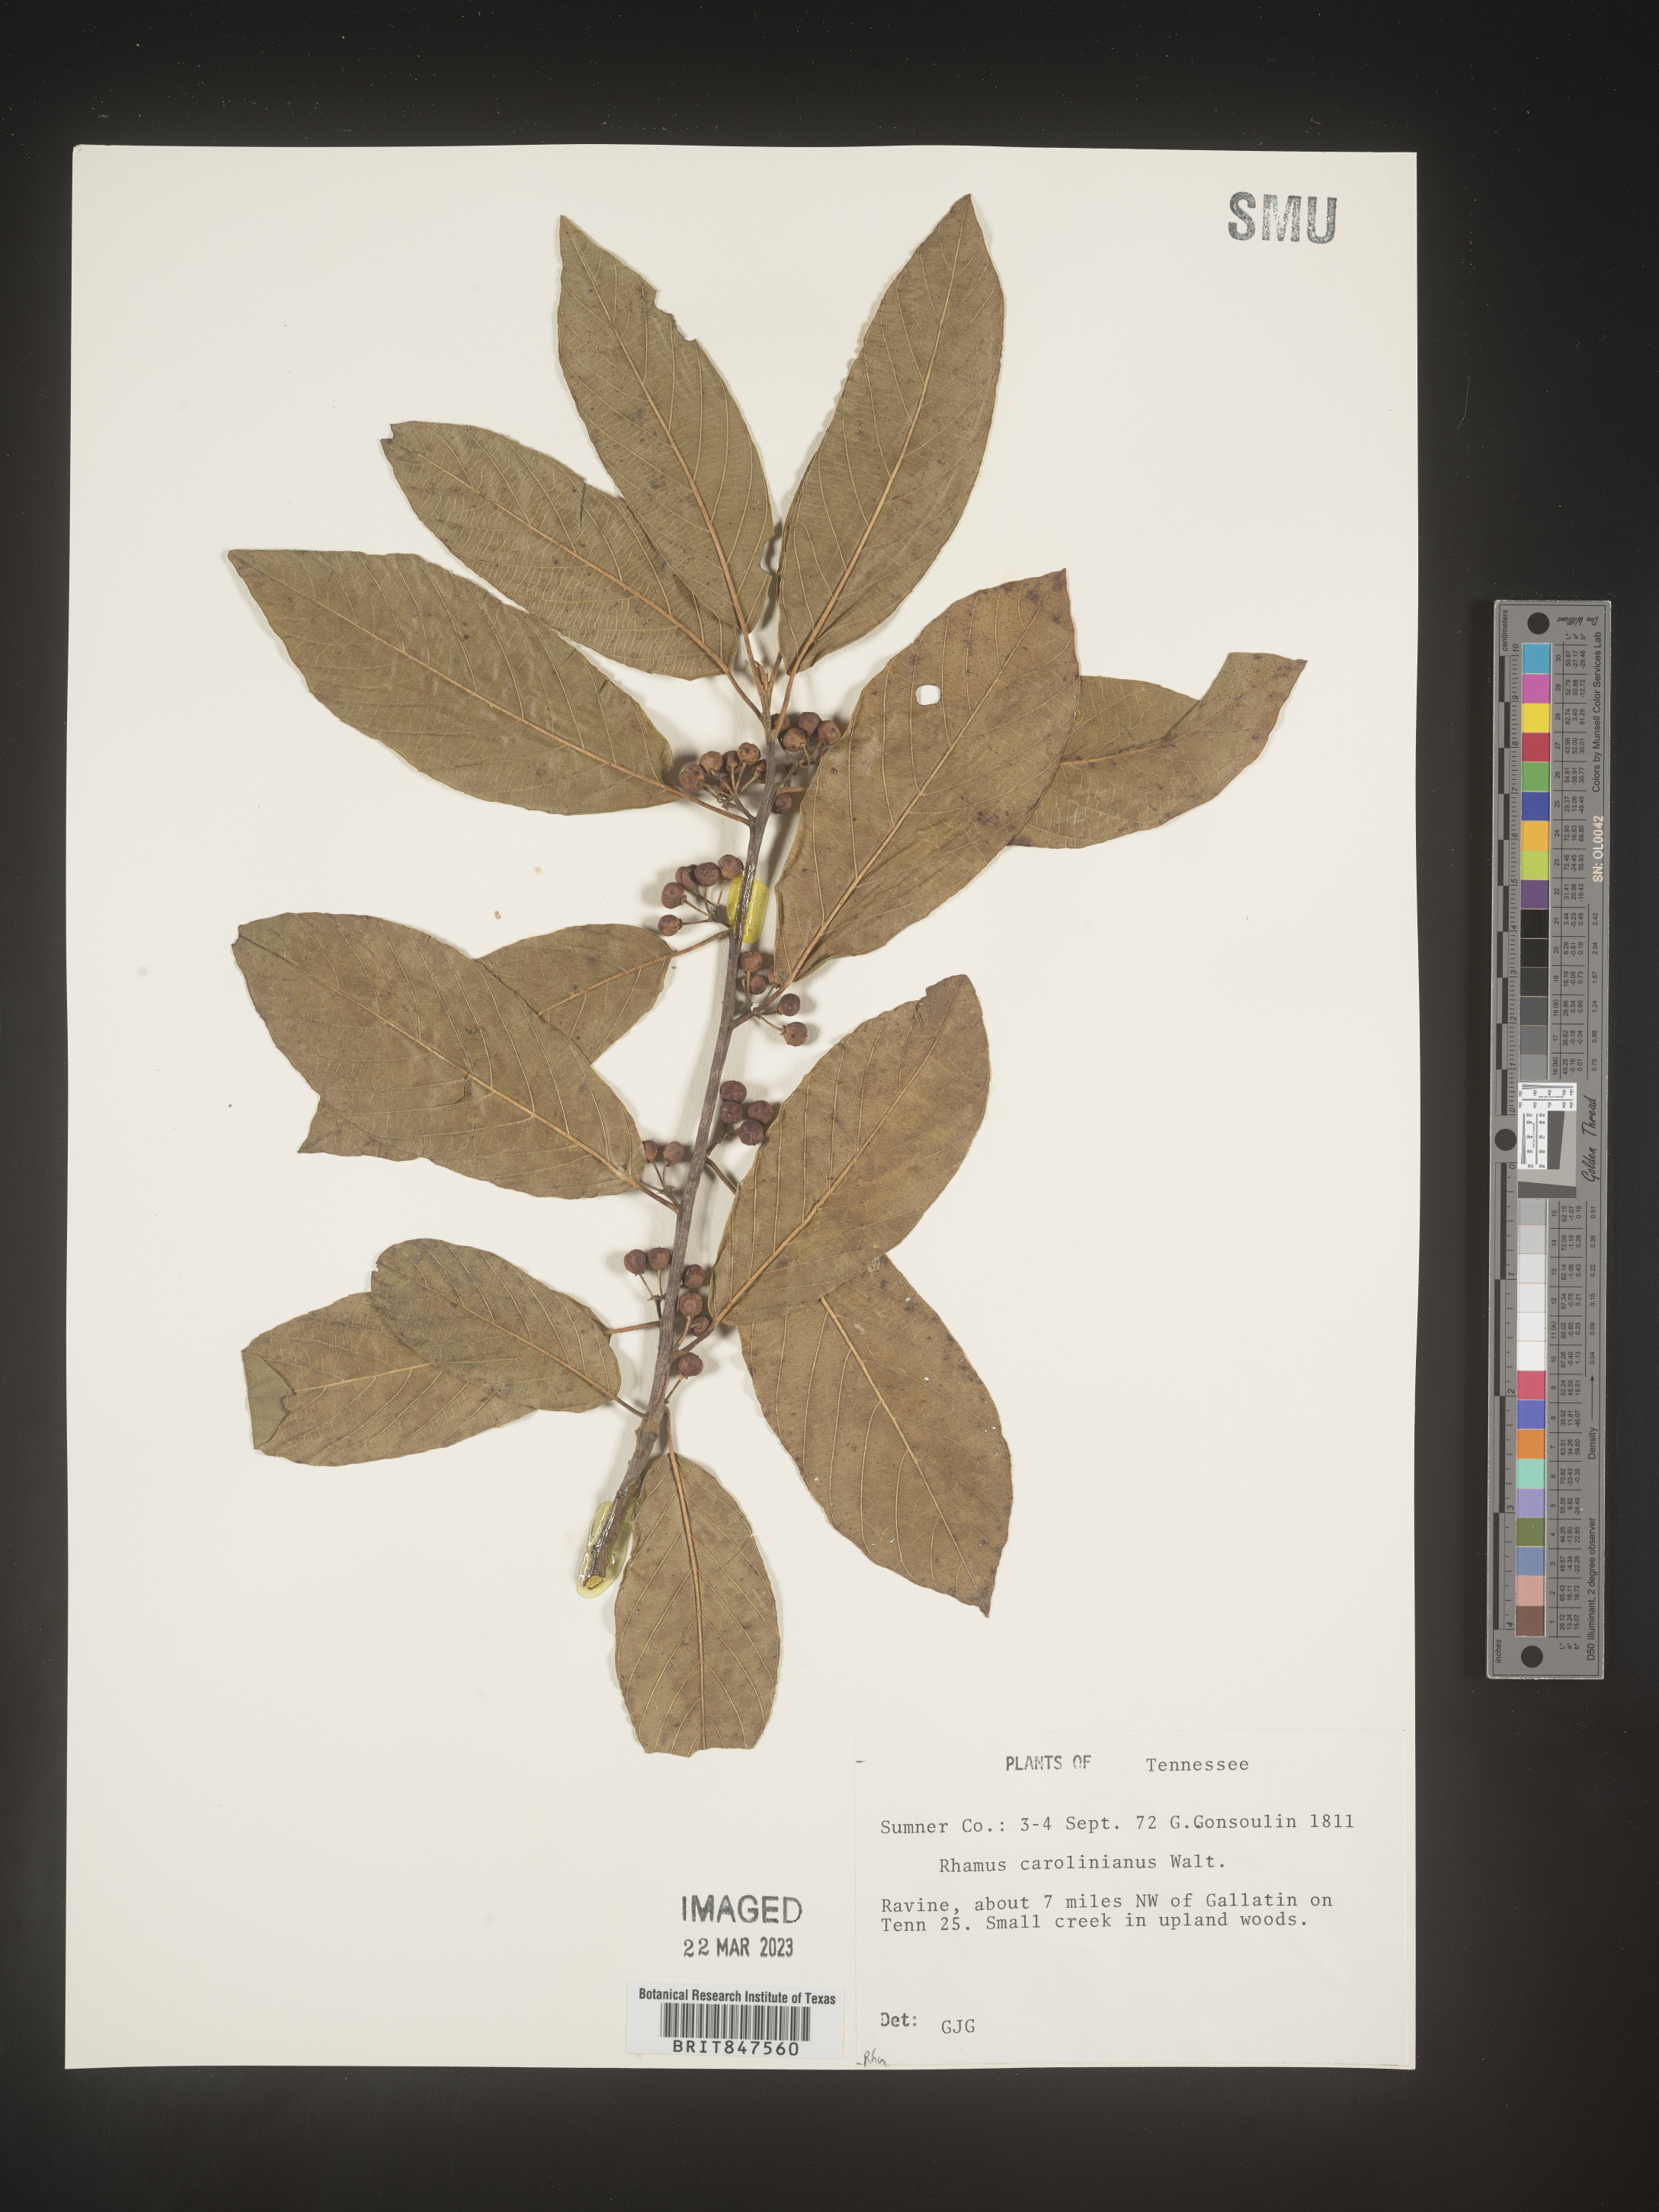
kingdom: Plantae
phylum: Tracheophyta
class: Magnoliopsida
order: Rosales
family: Rhamnaceae
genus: Frangula
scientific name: Frangula caroliniana
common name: Carolina buckthorn
